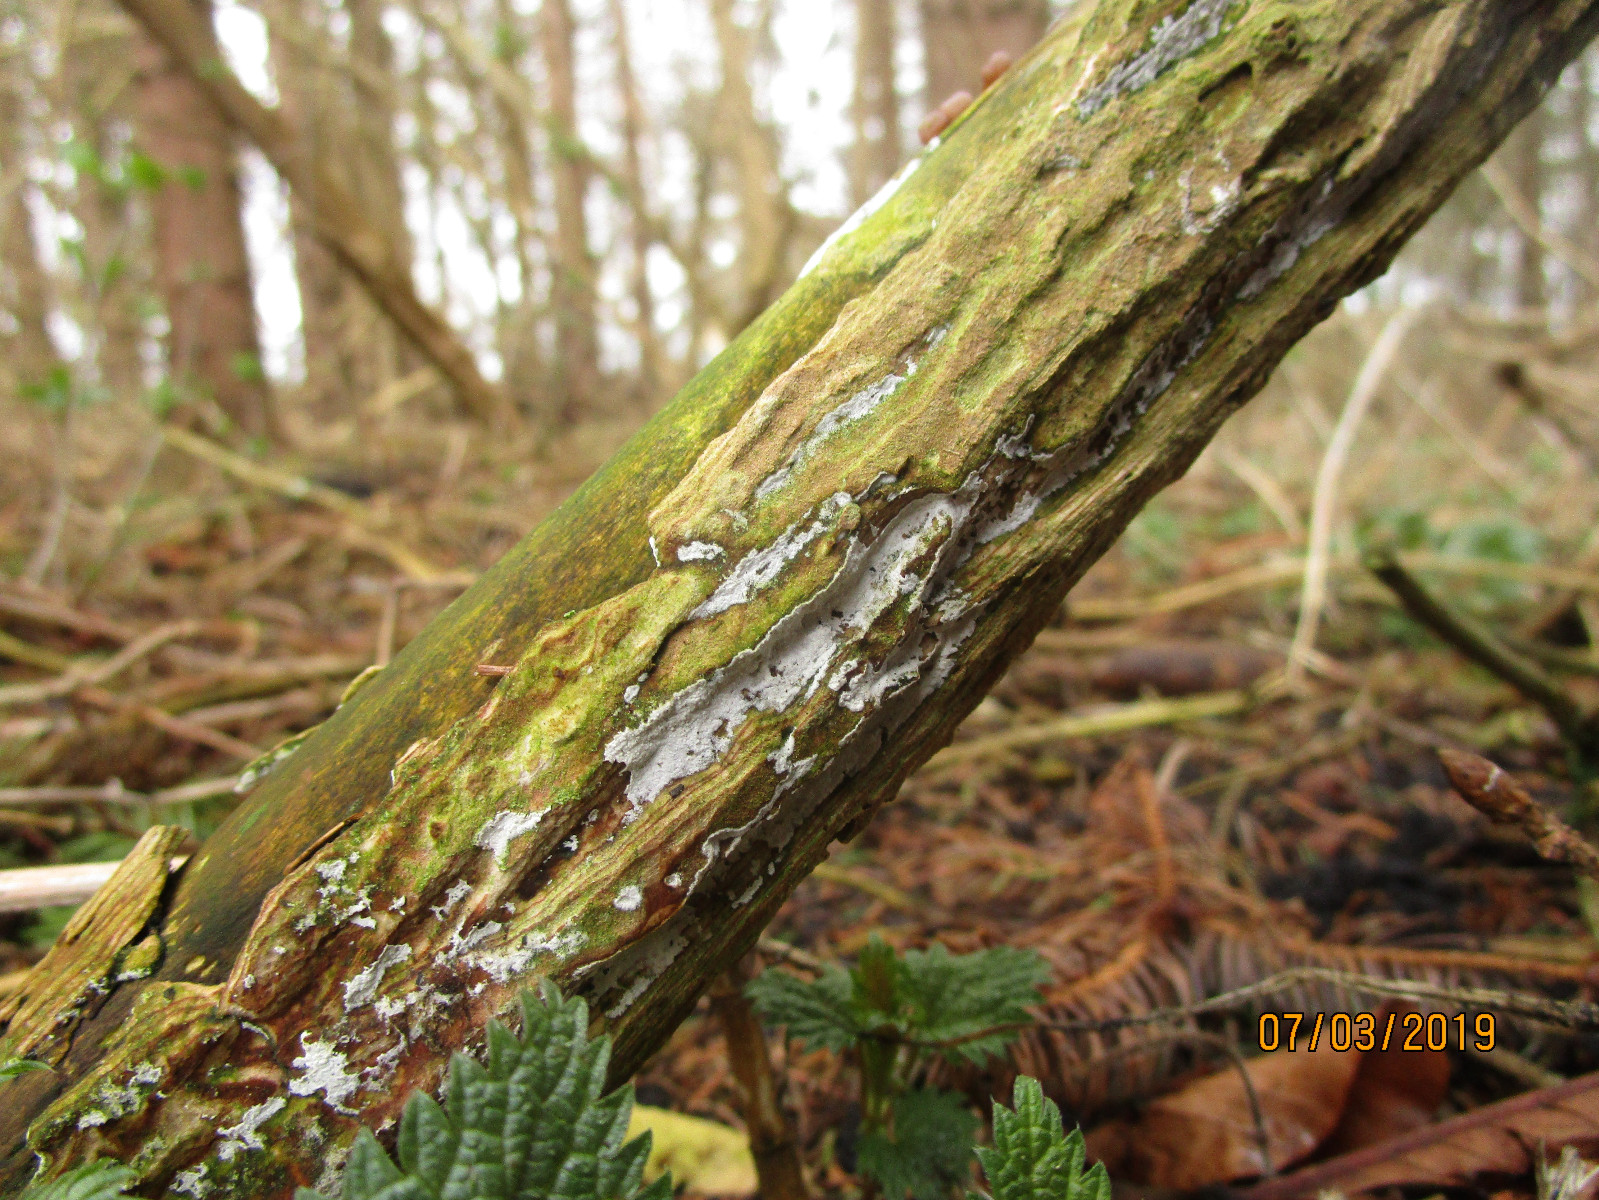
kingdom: Fungi
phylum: Basidiomycota
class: Agaricomycetes
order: Corticiales
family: Corticiaceae
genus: Lyomyces
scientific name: Lyomyces sambuci
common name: almindelig hyldehinde
